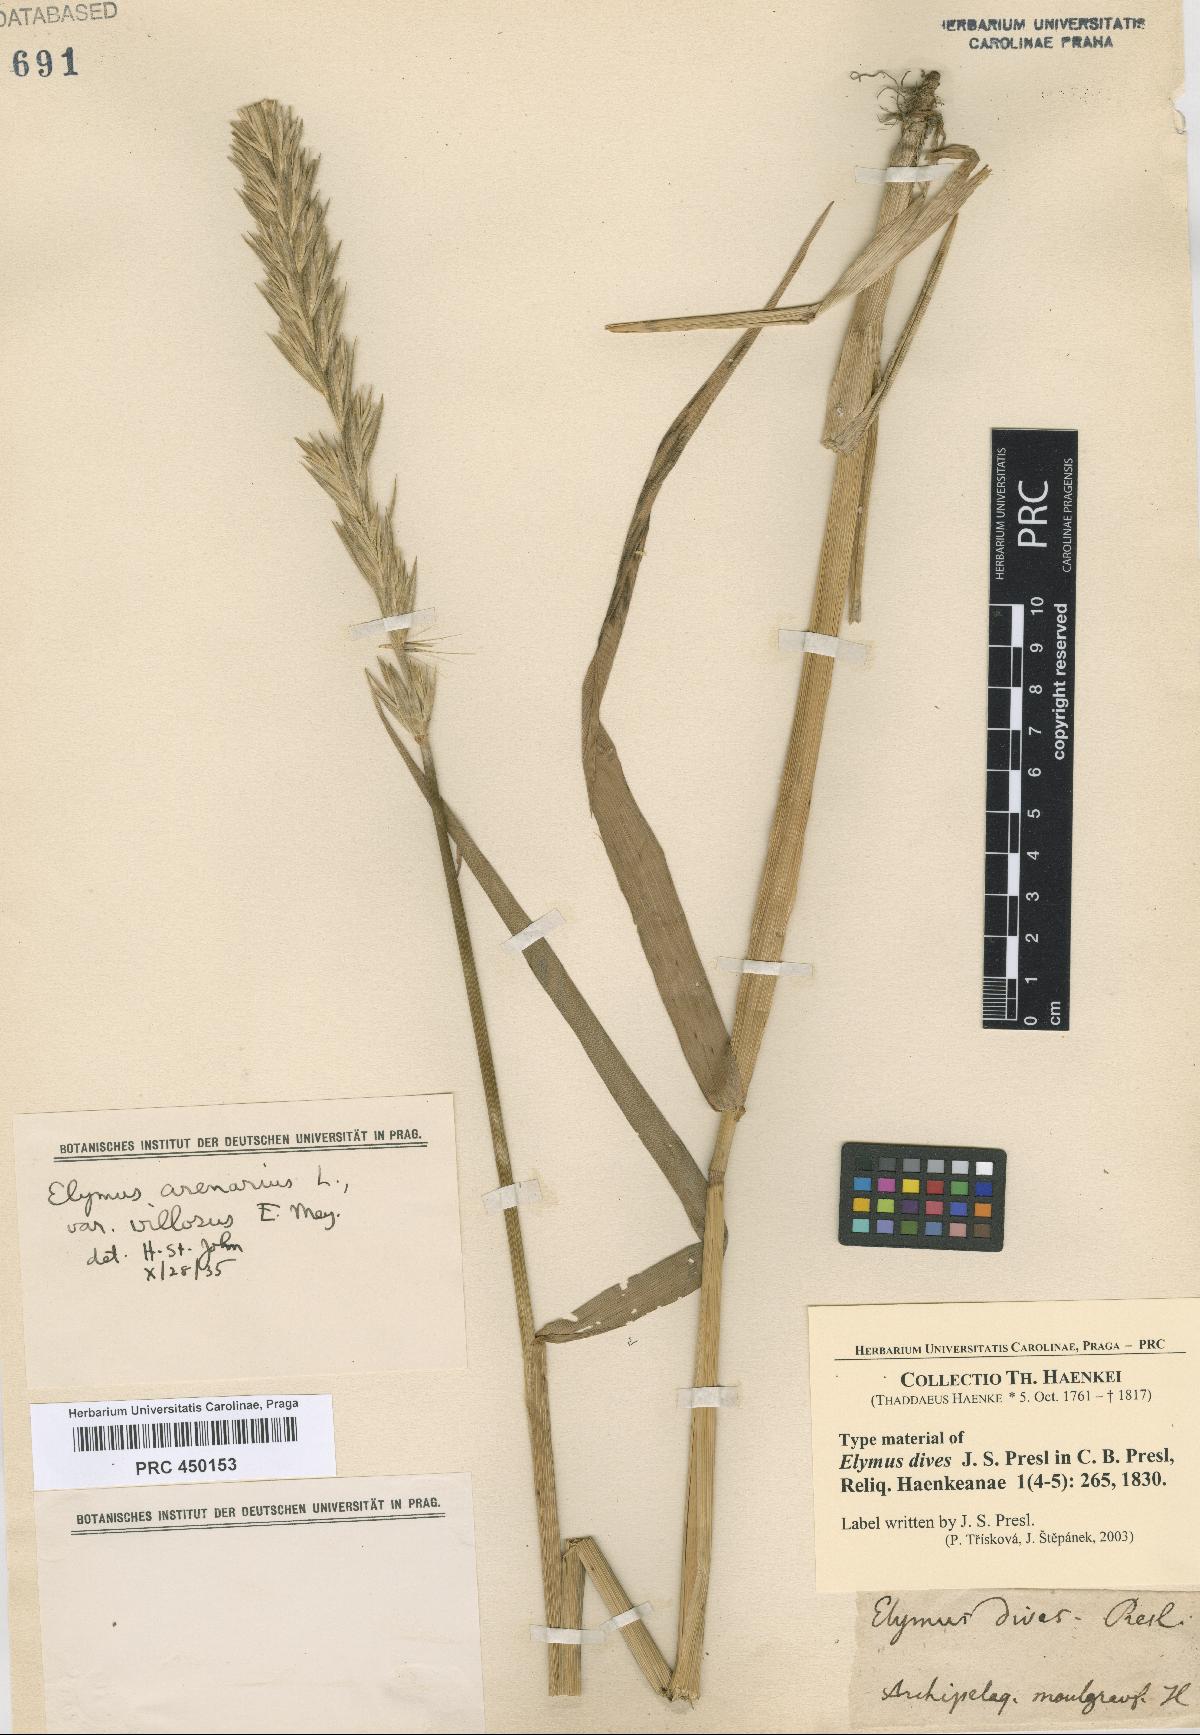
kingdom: Plantae
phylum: Tracheophyta
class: Liliopsida
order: Poales
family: Poaceae
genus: Leymus
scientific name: Leymus mollis
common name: American dune grass
